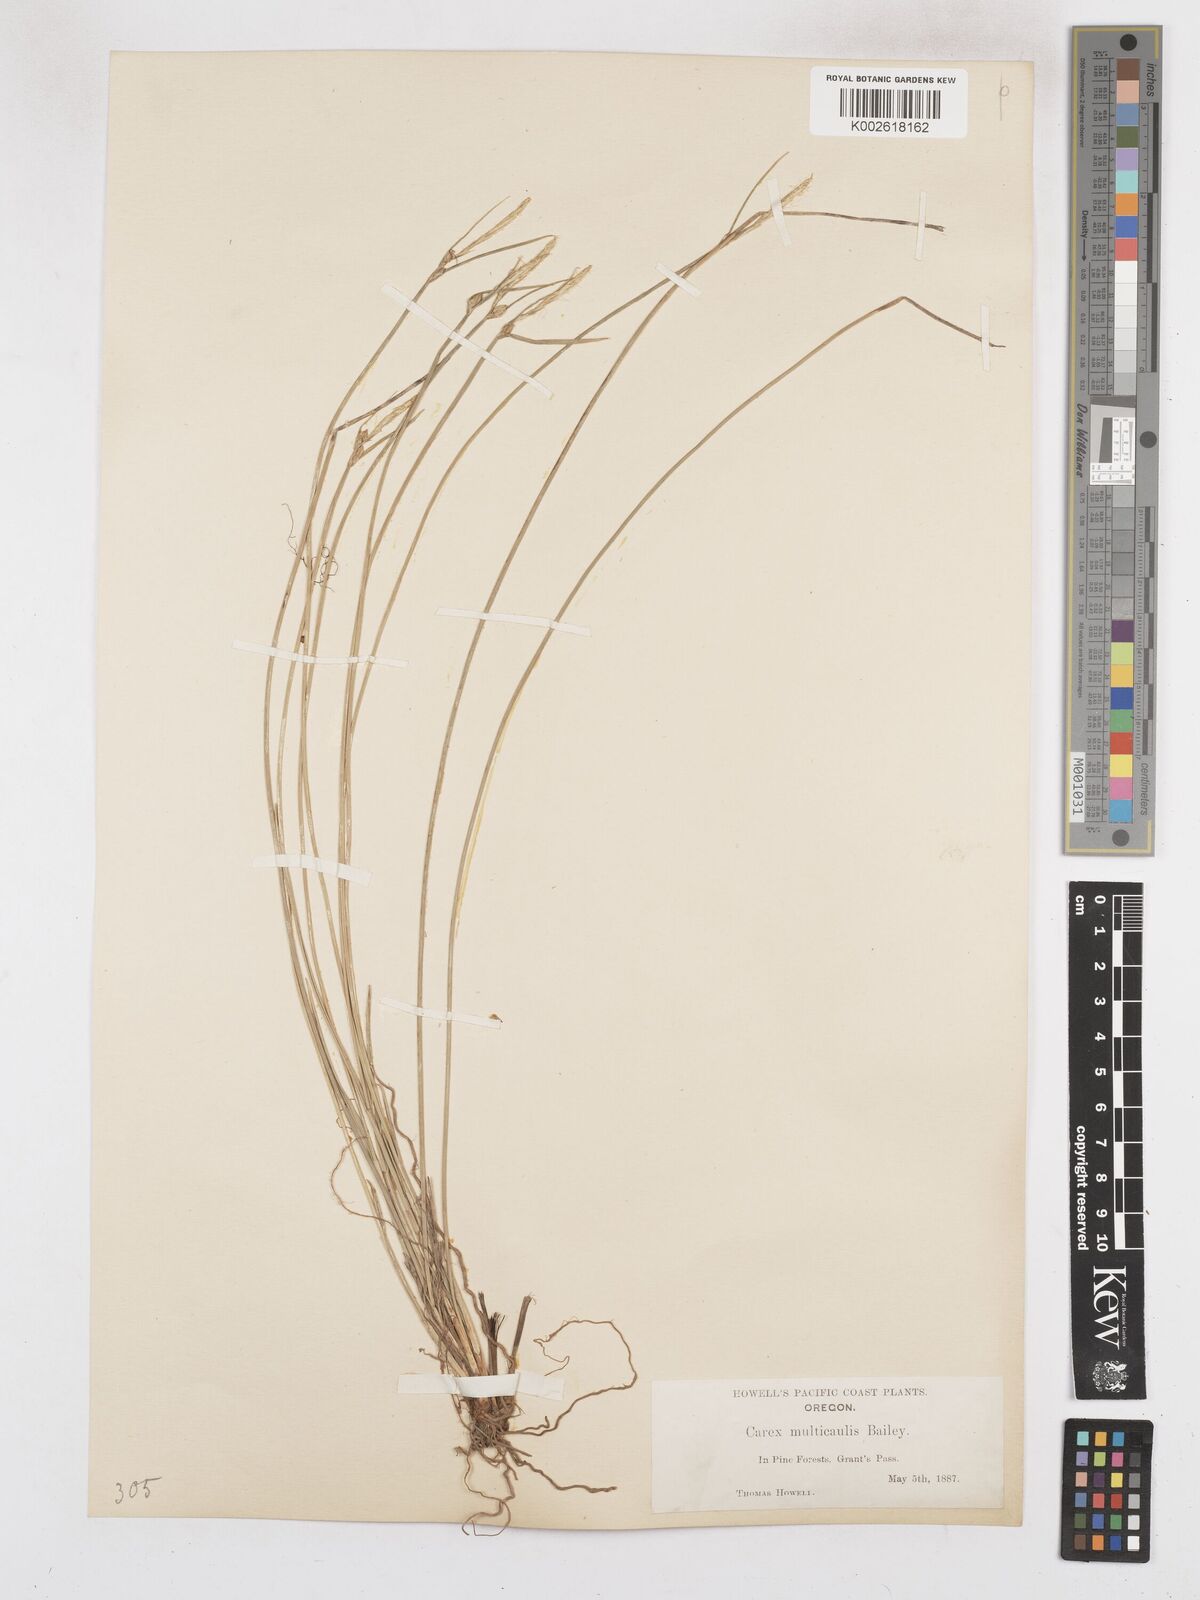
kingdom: Plantae
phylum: Tracheophyta
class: Liliopsida
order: Poales
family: Cyperaceae
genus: Carex
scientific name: Carex multicaulis
